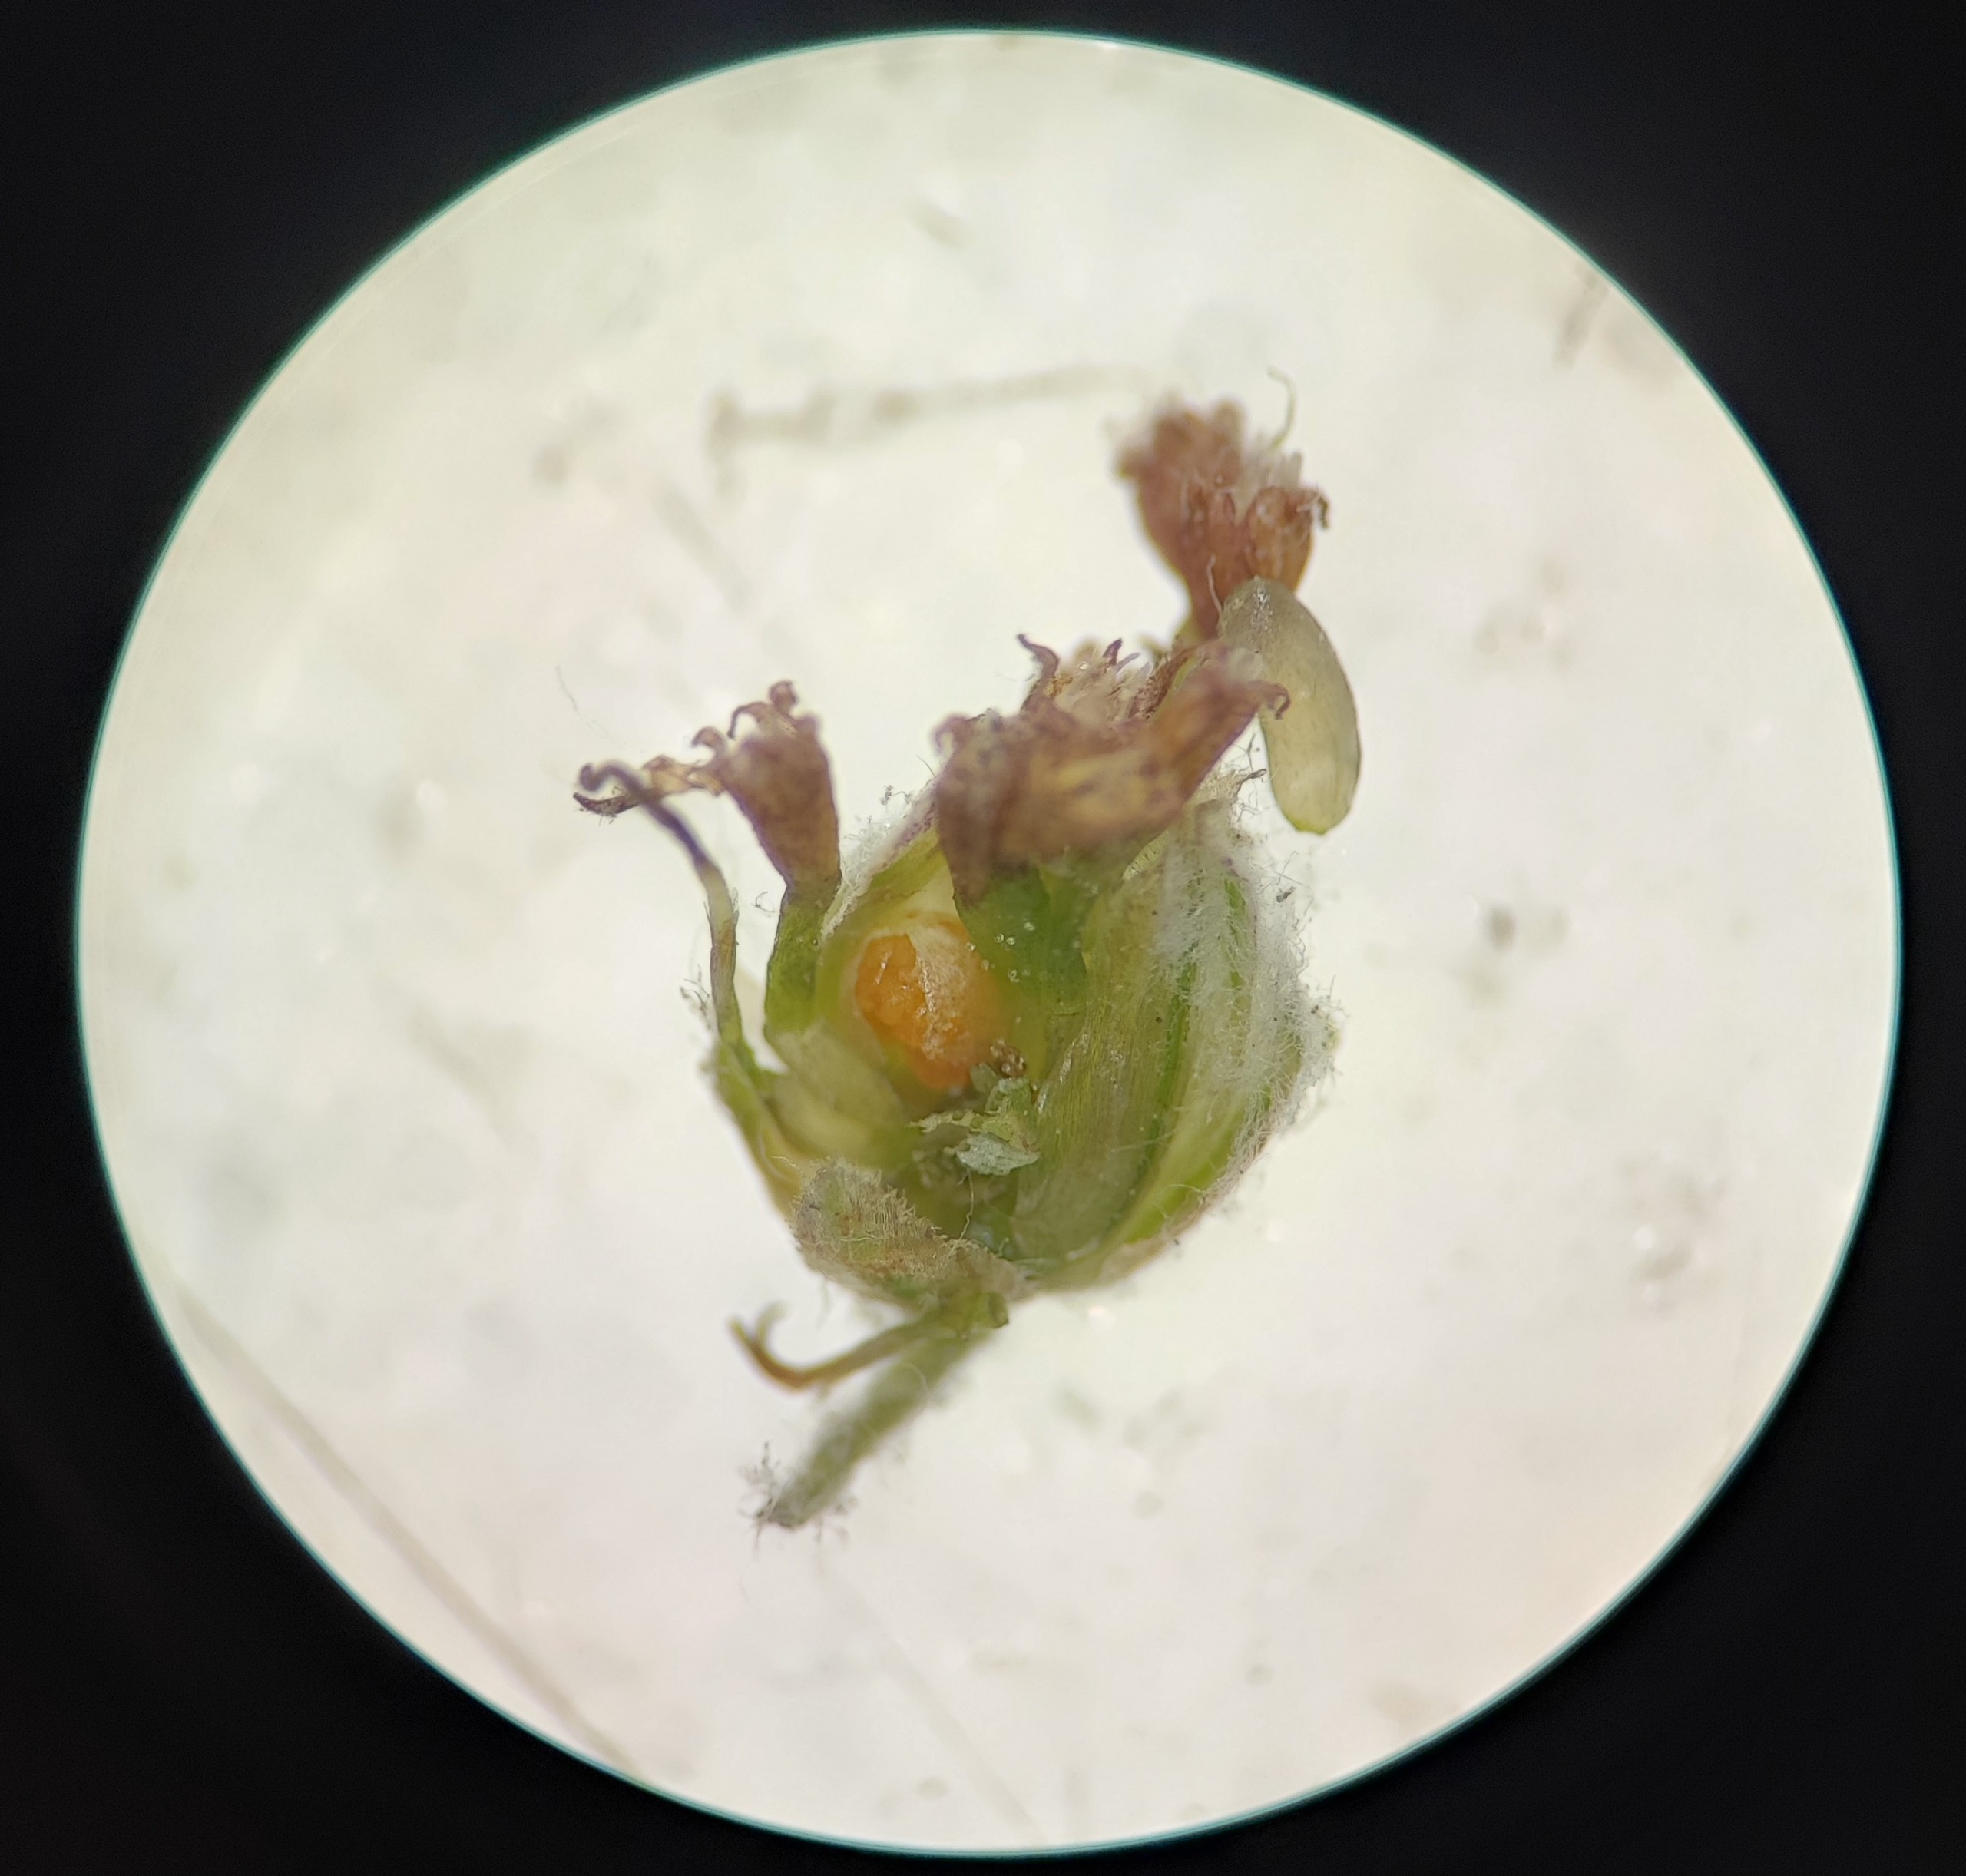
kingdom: Animalia
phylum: Arthropoda
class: Insecta
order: Diptera
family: Cecidomyiidae
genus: Rhopalomyia
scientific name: Rhopalomyia florum
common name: Bynkefrøgalmyg
